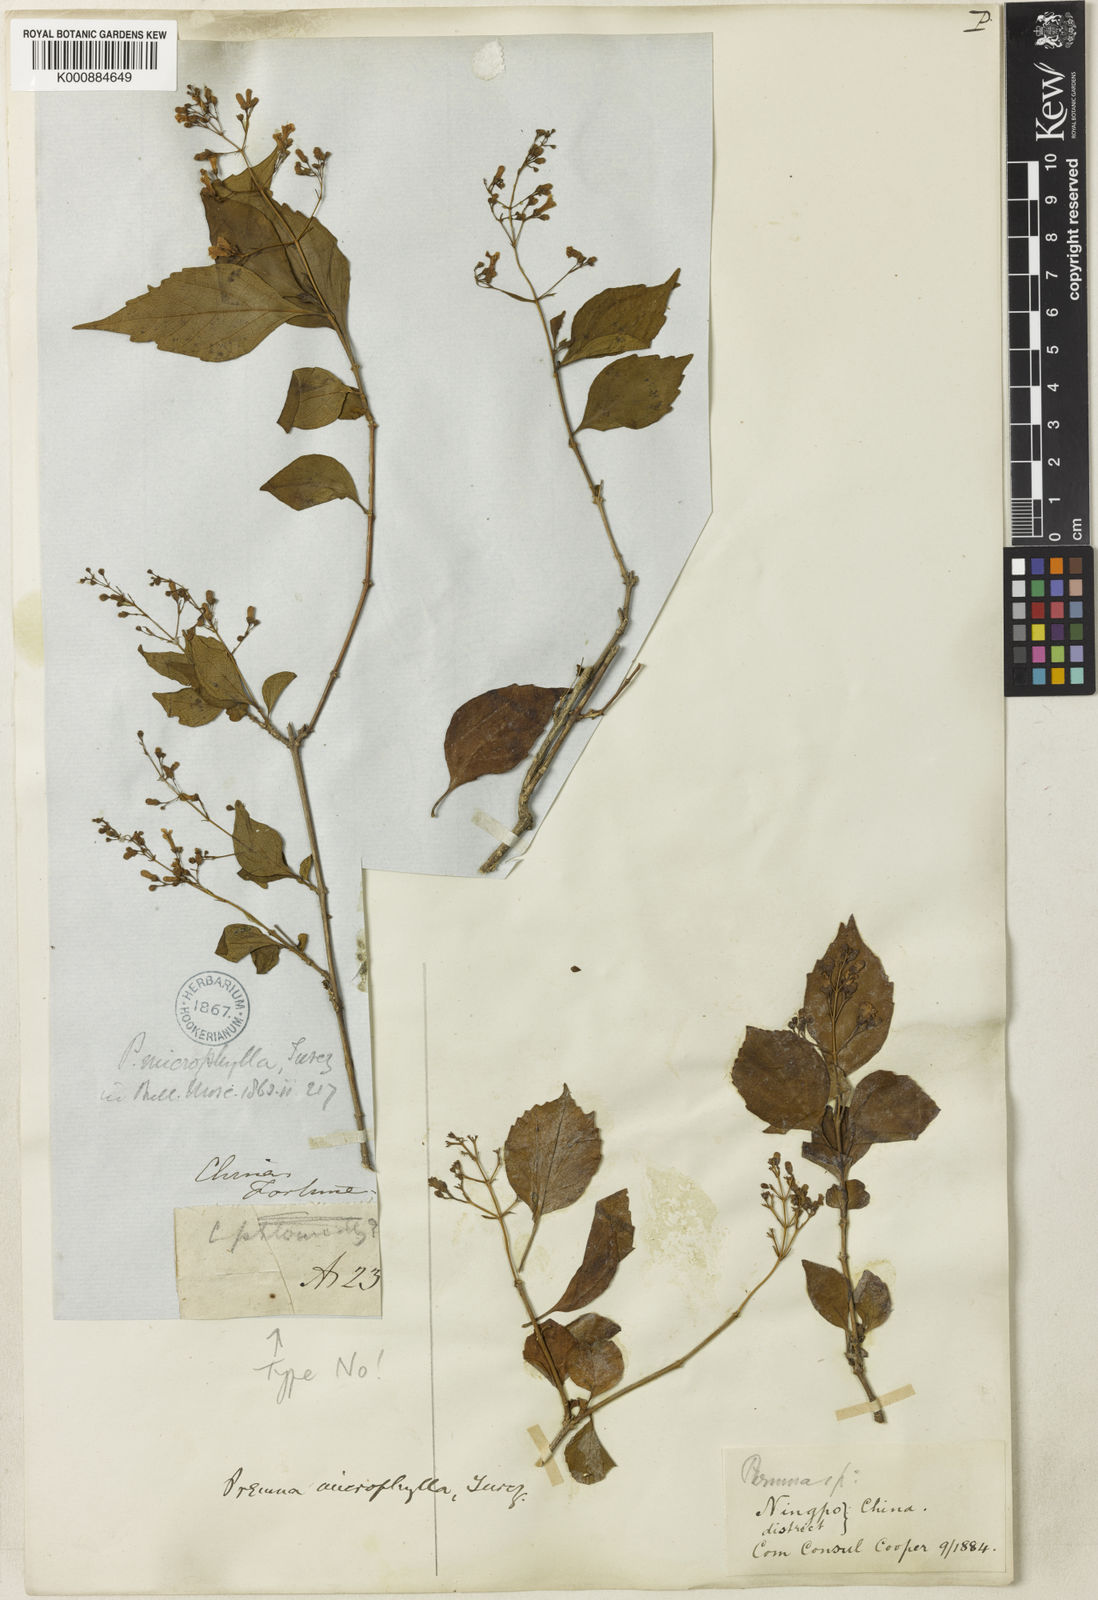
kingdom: Plantae
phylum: Tracheophyta
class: Magnoliopsida
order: Lamiales
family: Lamiaceae
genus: Premna
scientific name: Premna microphylla
